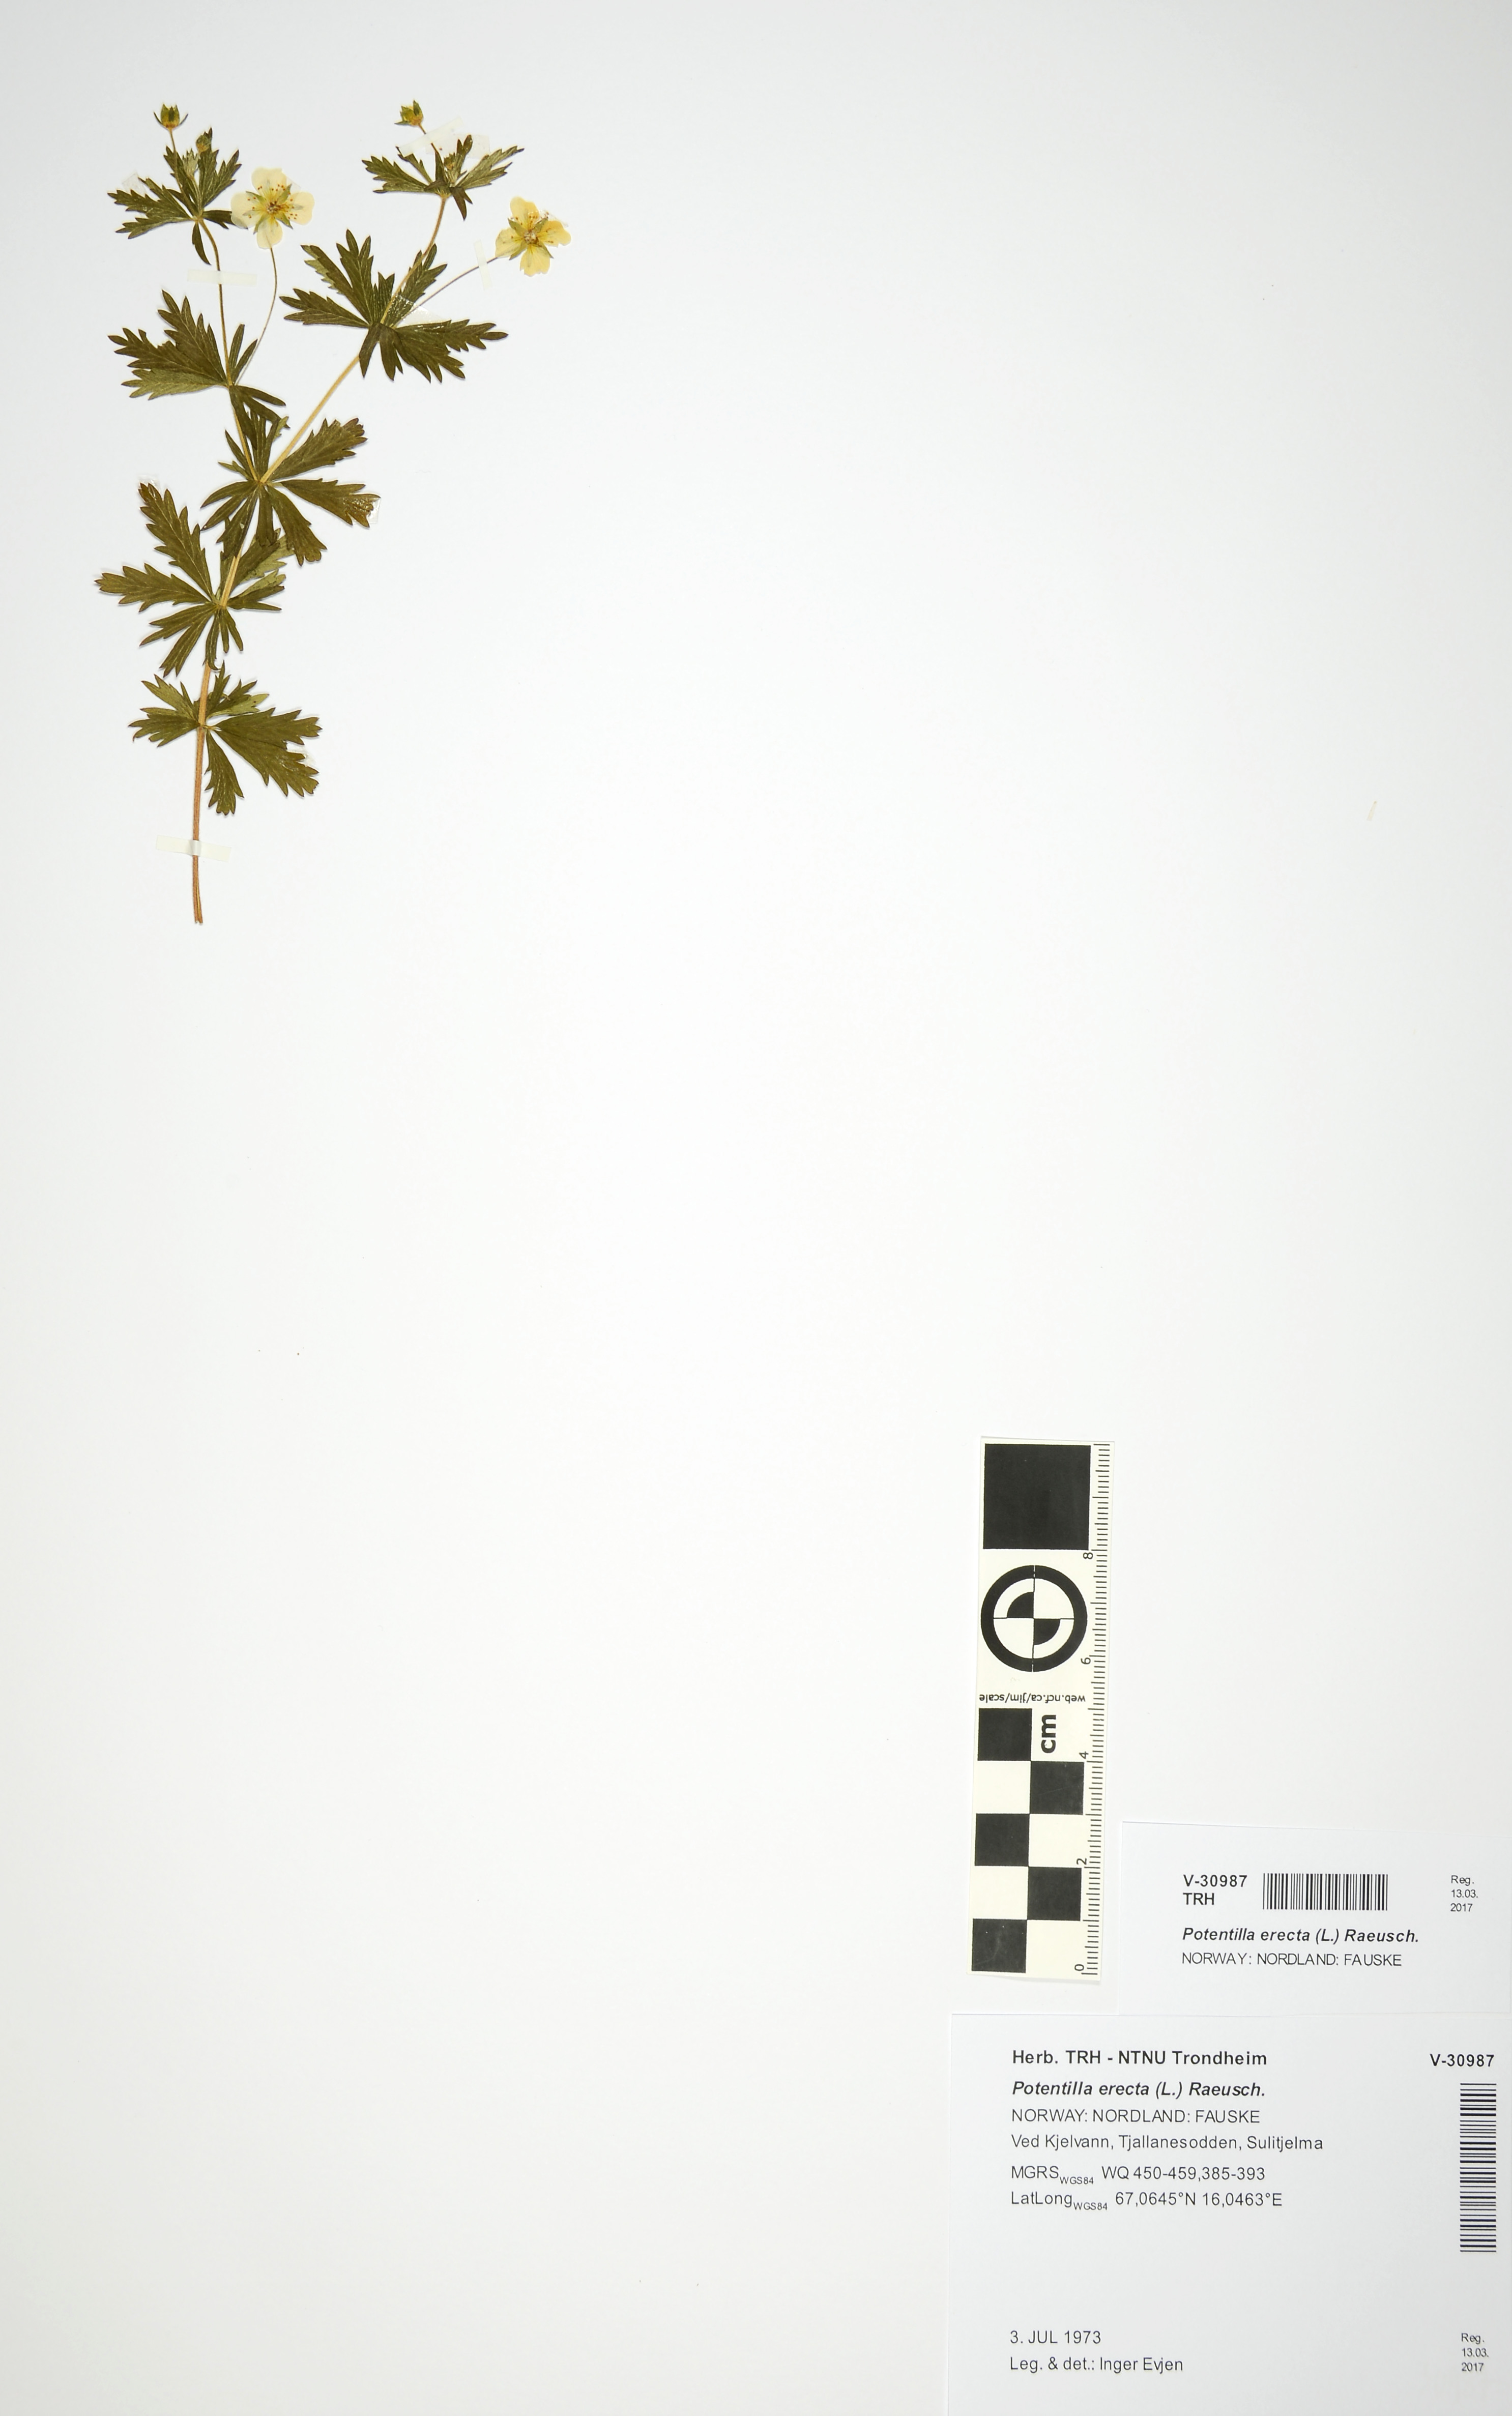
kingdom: Plantae
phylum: Tracheophyta
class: Magnoliopsida
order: Rosales
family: Rosaceae
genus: Potentilla
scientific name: Potentilla erecta
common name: Tormentil
